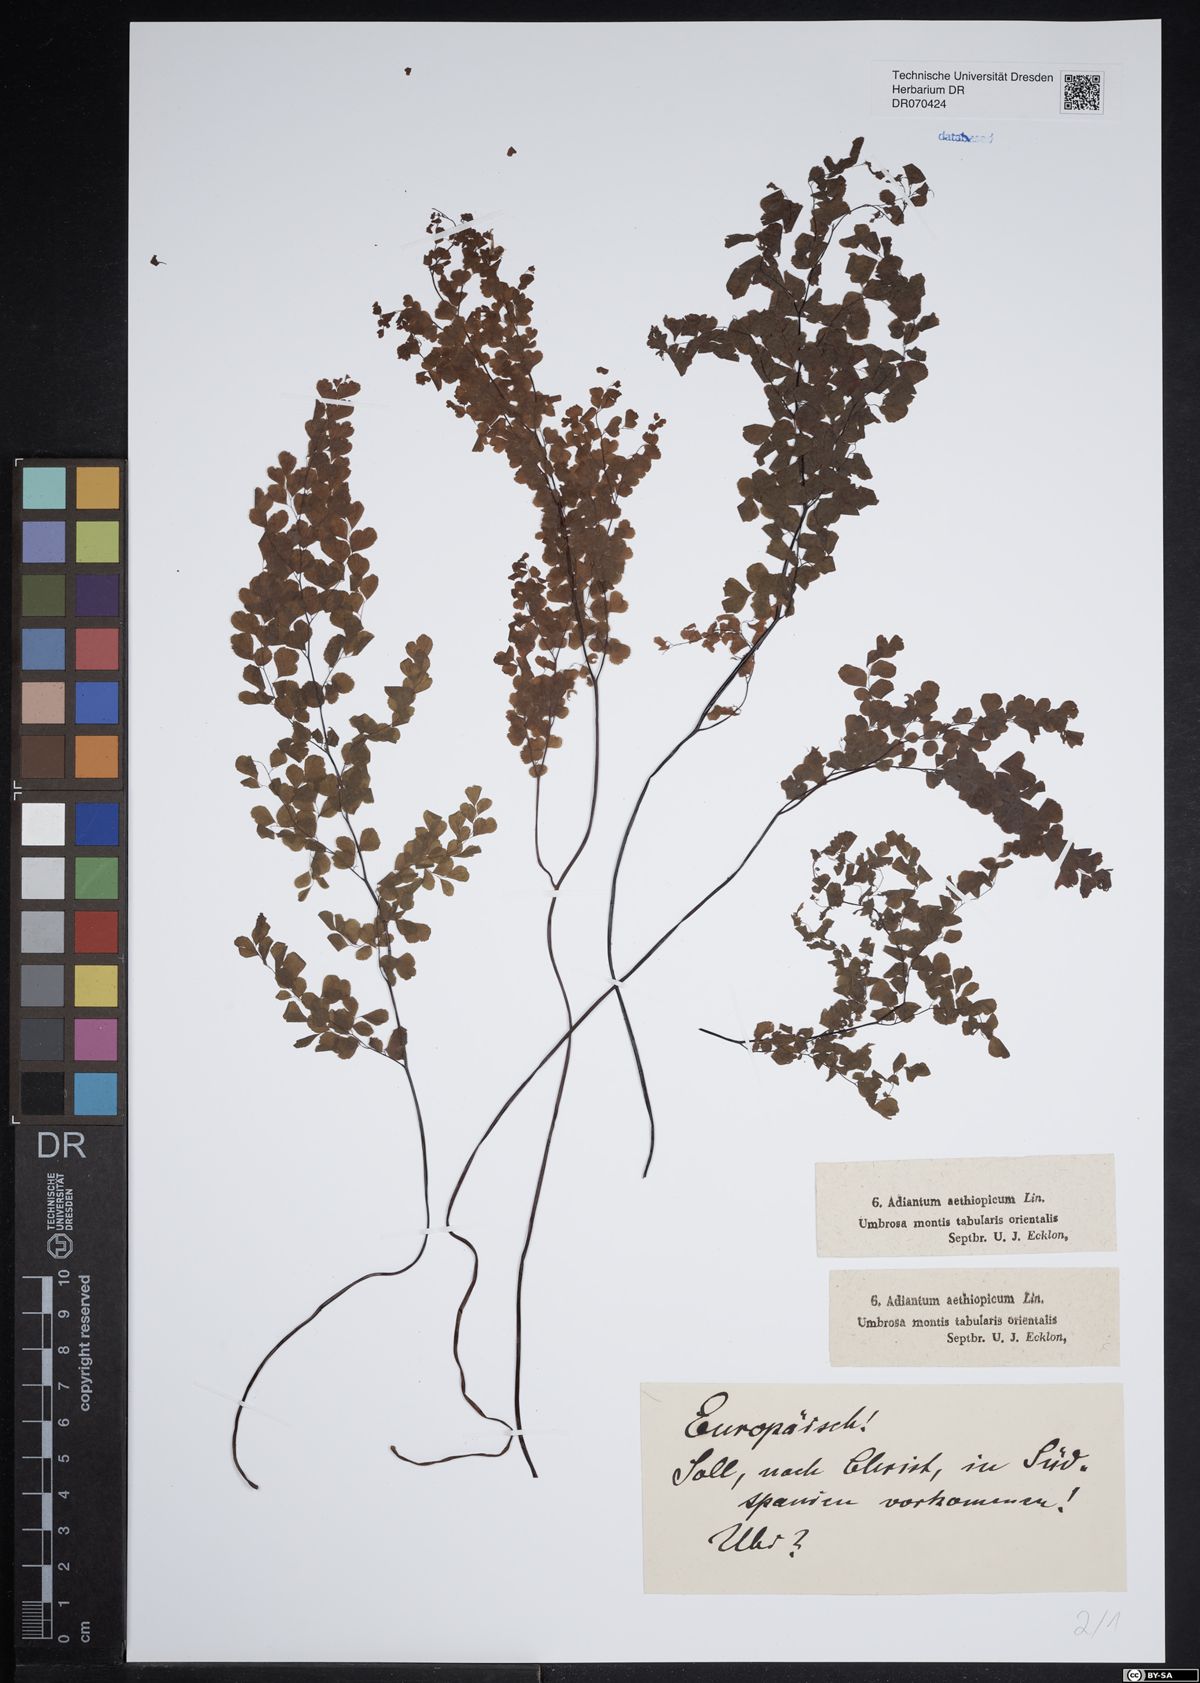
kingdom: Plantae
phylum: Tracheophyta
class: Polypodiopsida
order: Polypodiales
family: Pteridaceae
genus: Adiantum
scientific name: Adiantum aethiopicum
